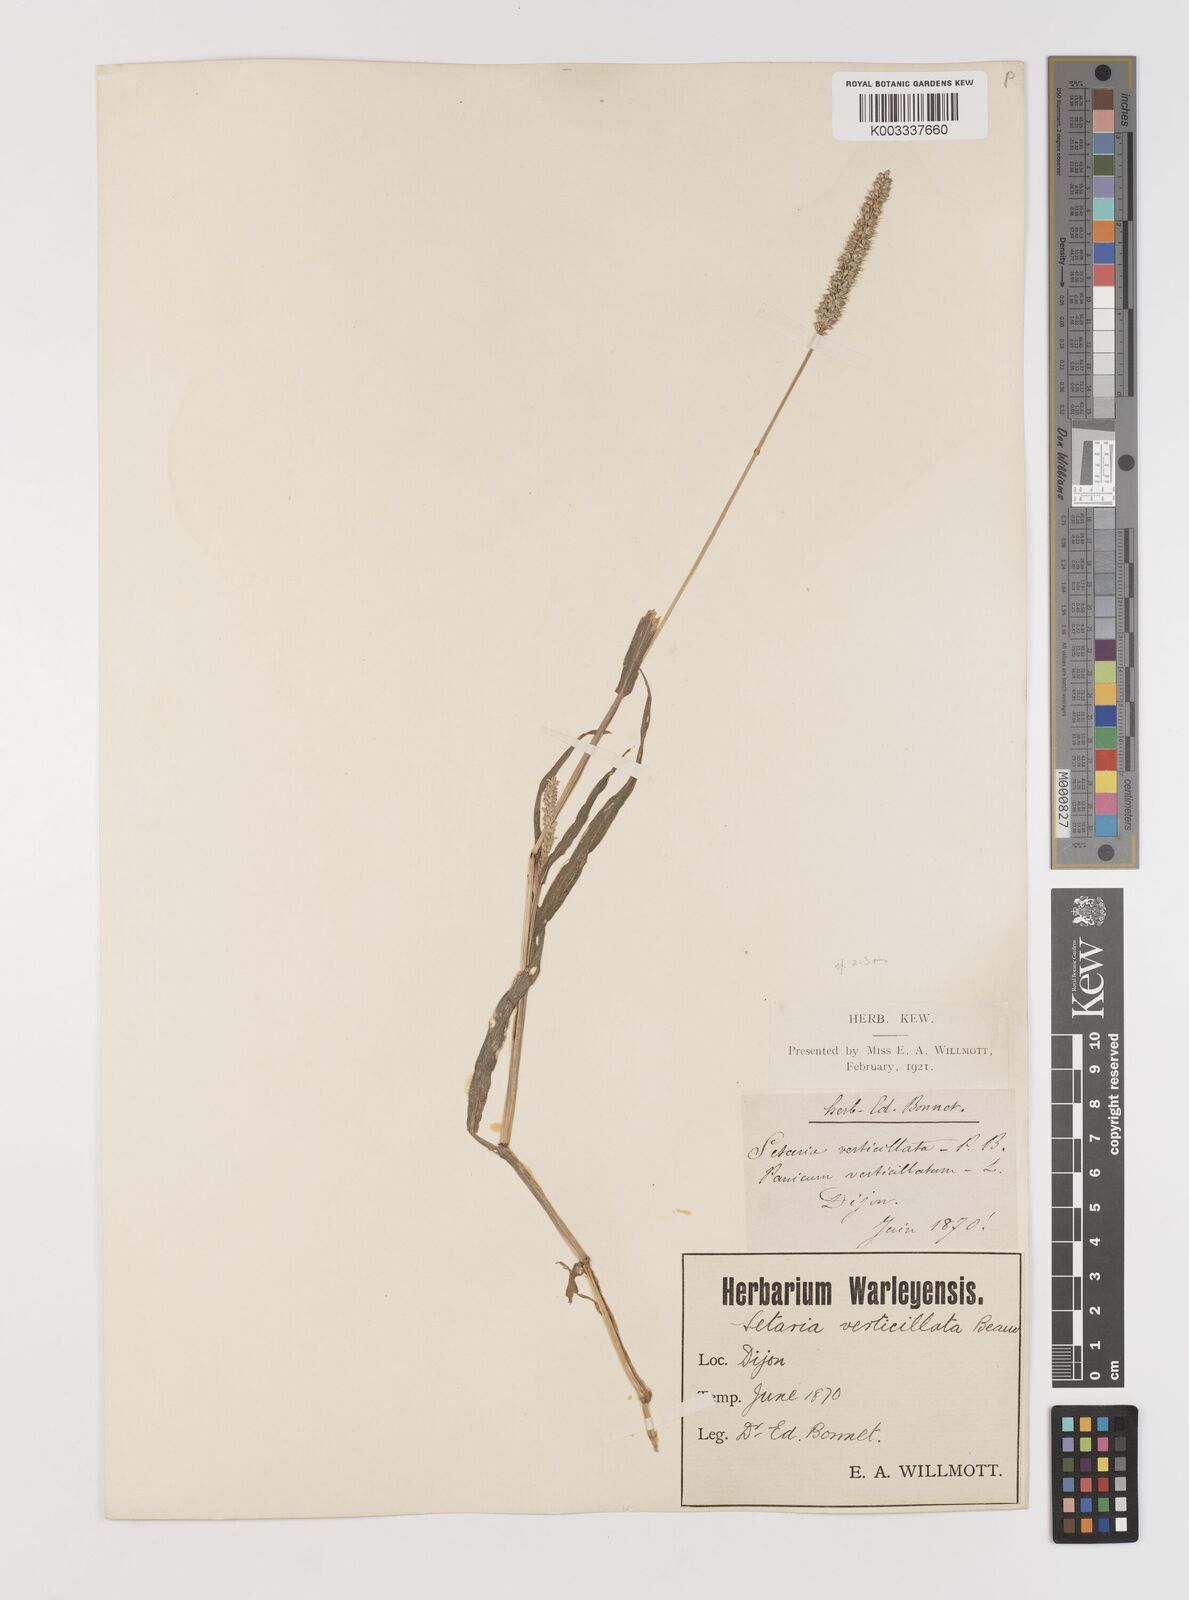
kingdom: Plantae
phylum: Tracheophyta
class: Liliopsida
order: Poales
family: Poaceae
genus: Setaria
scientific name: Setaria verticillata
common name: Hooked bristlegrass
